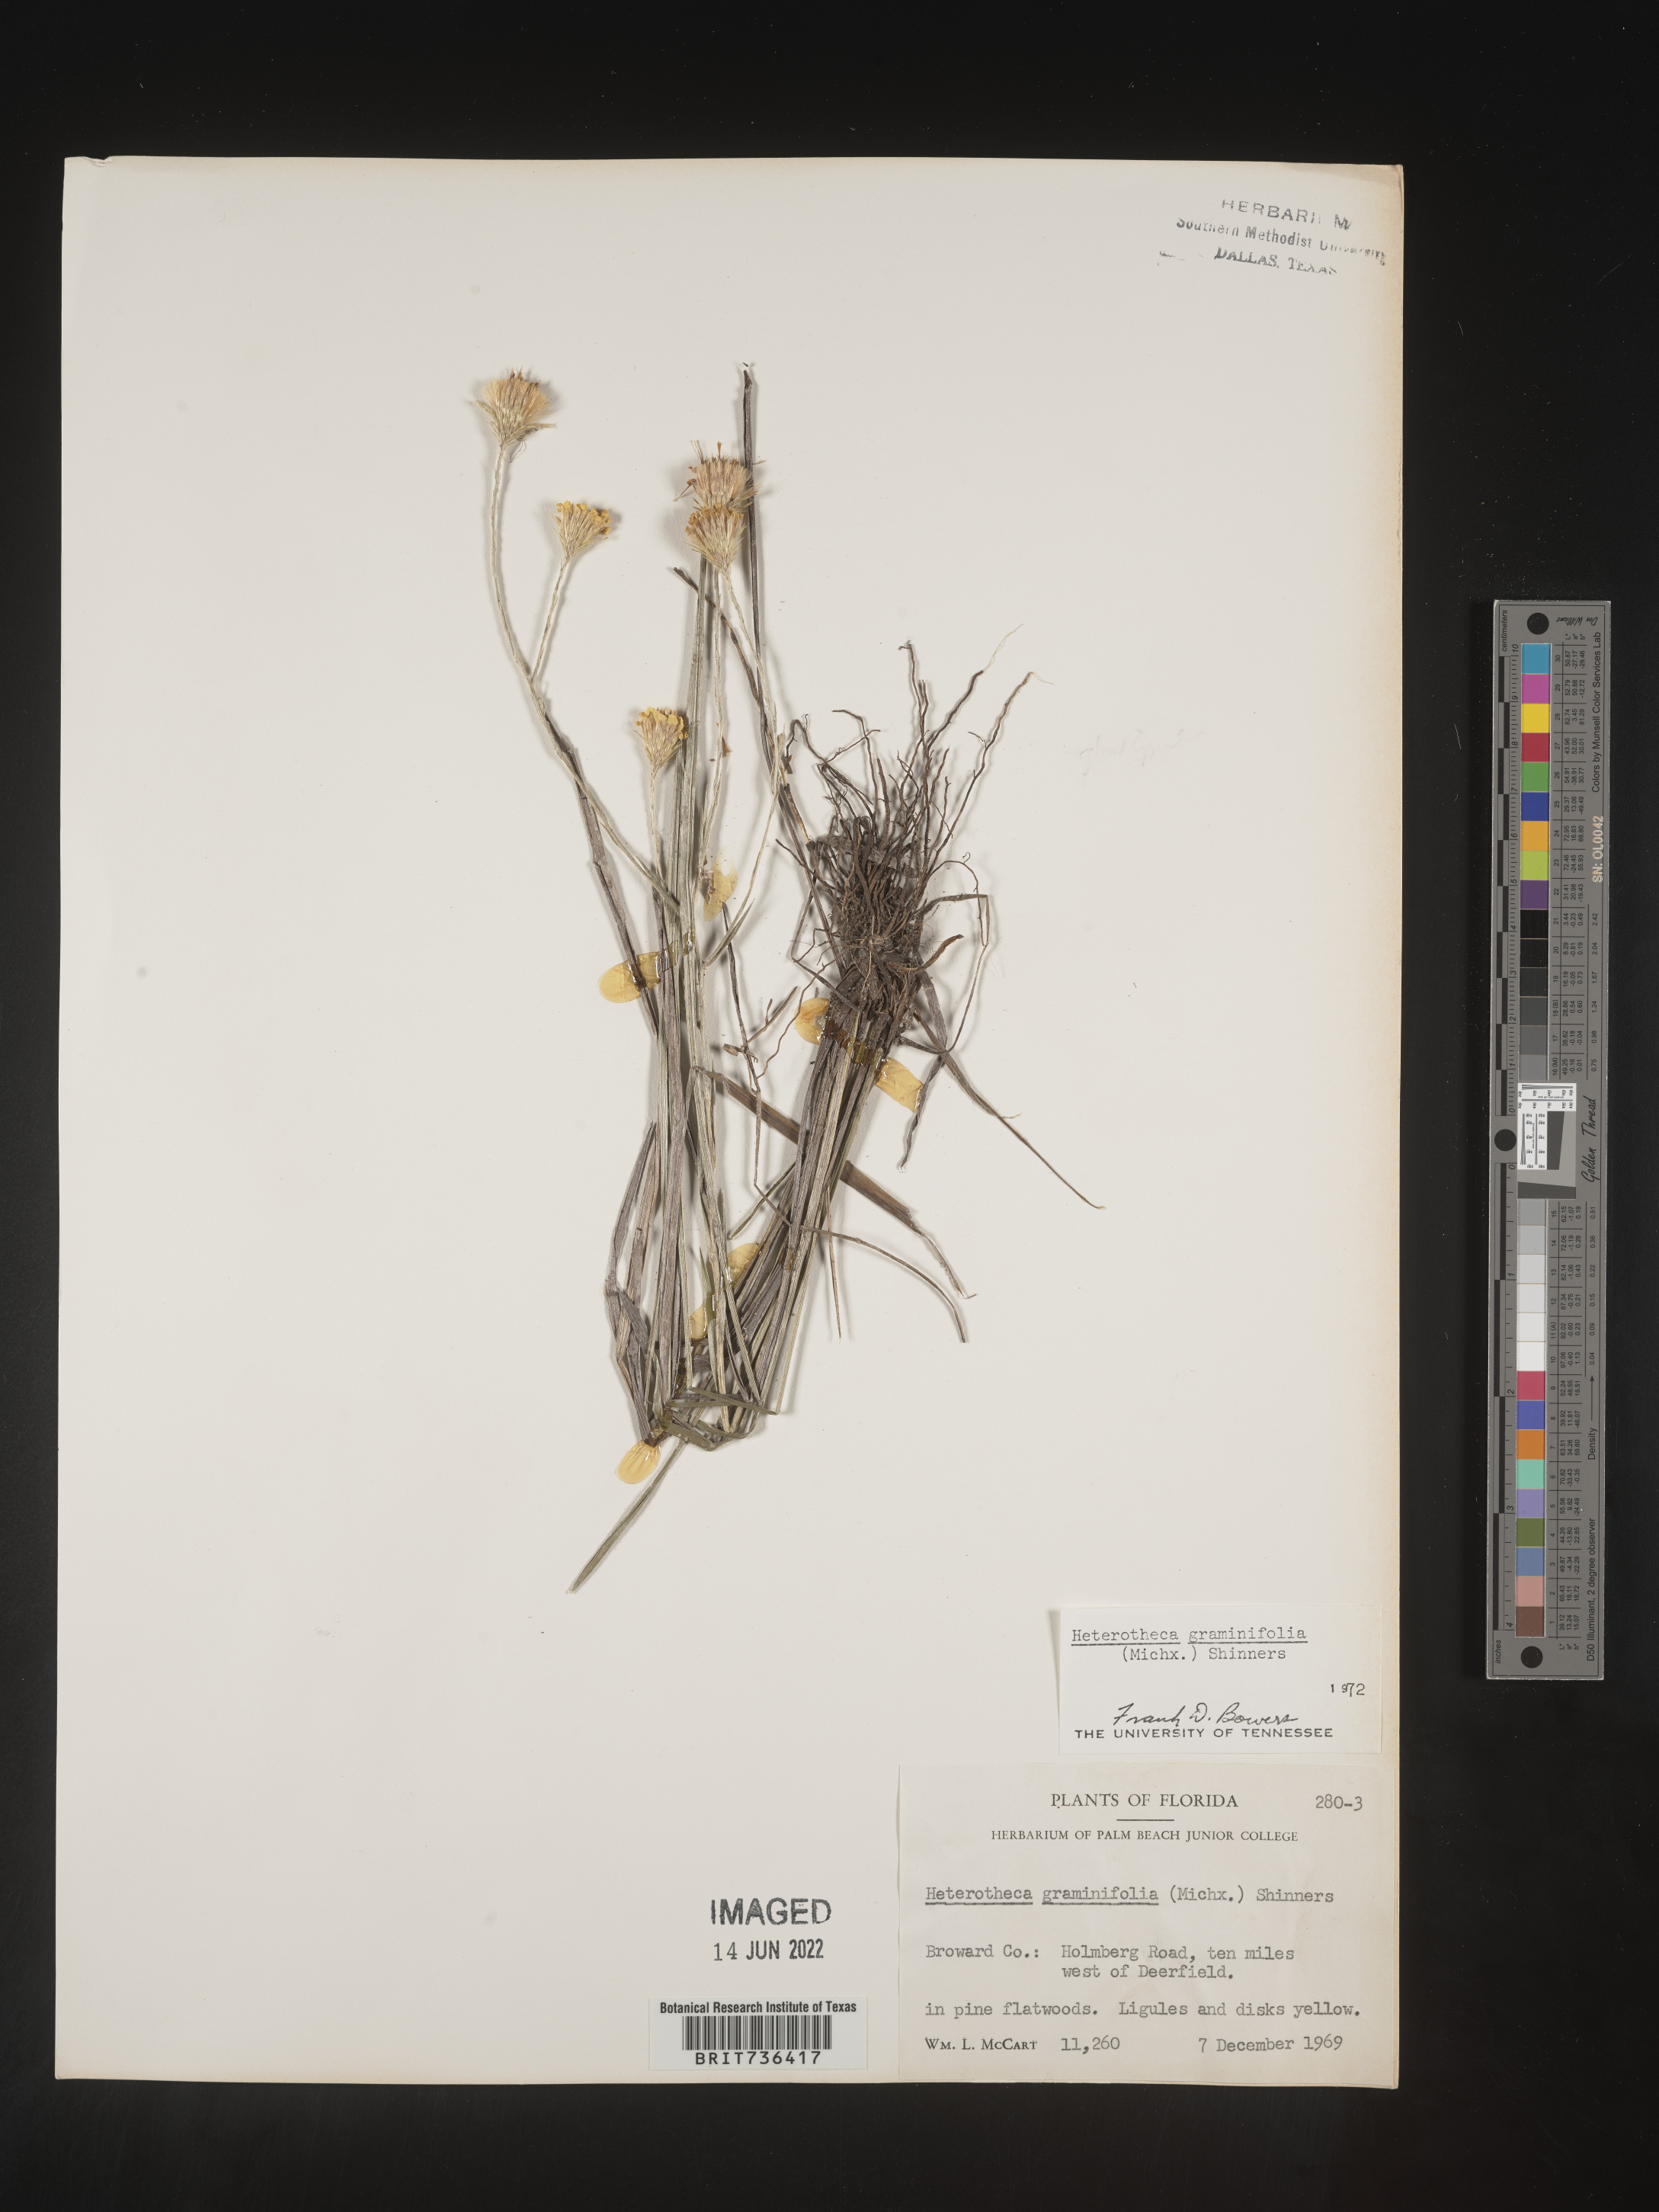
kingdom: Plantae
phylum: Tracheophyta
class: Magnoliopsida
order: Asterales
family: Asteraceae
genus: Pityopsis
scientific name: Pityopsis tracyi
